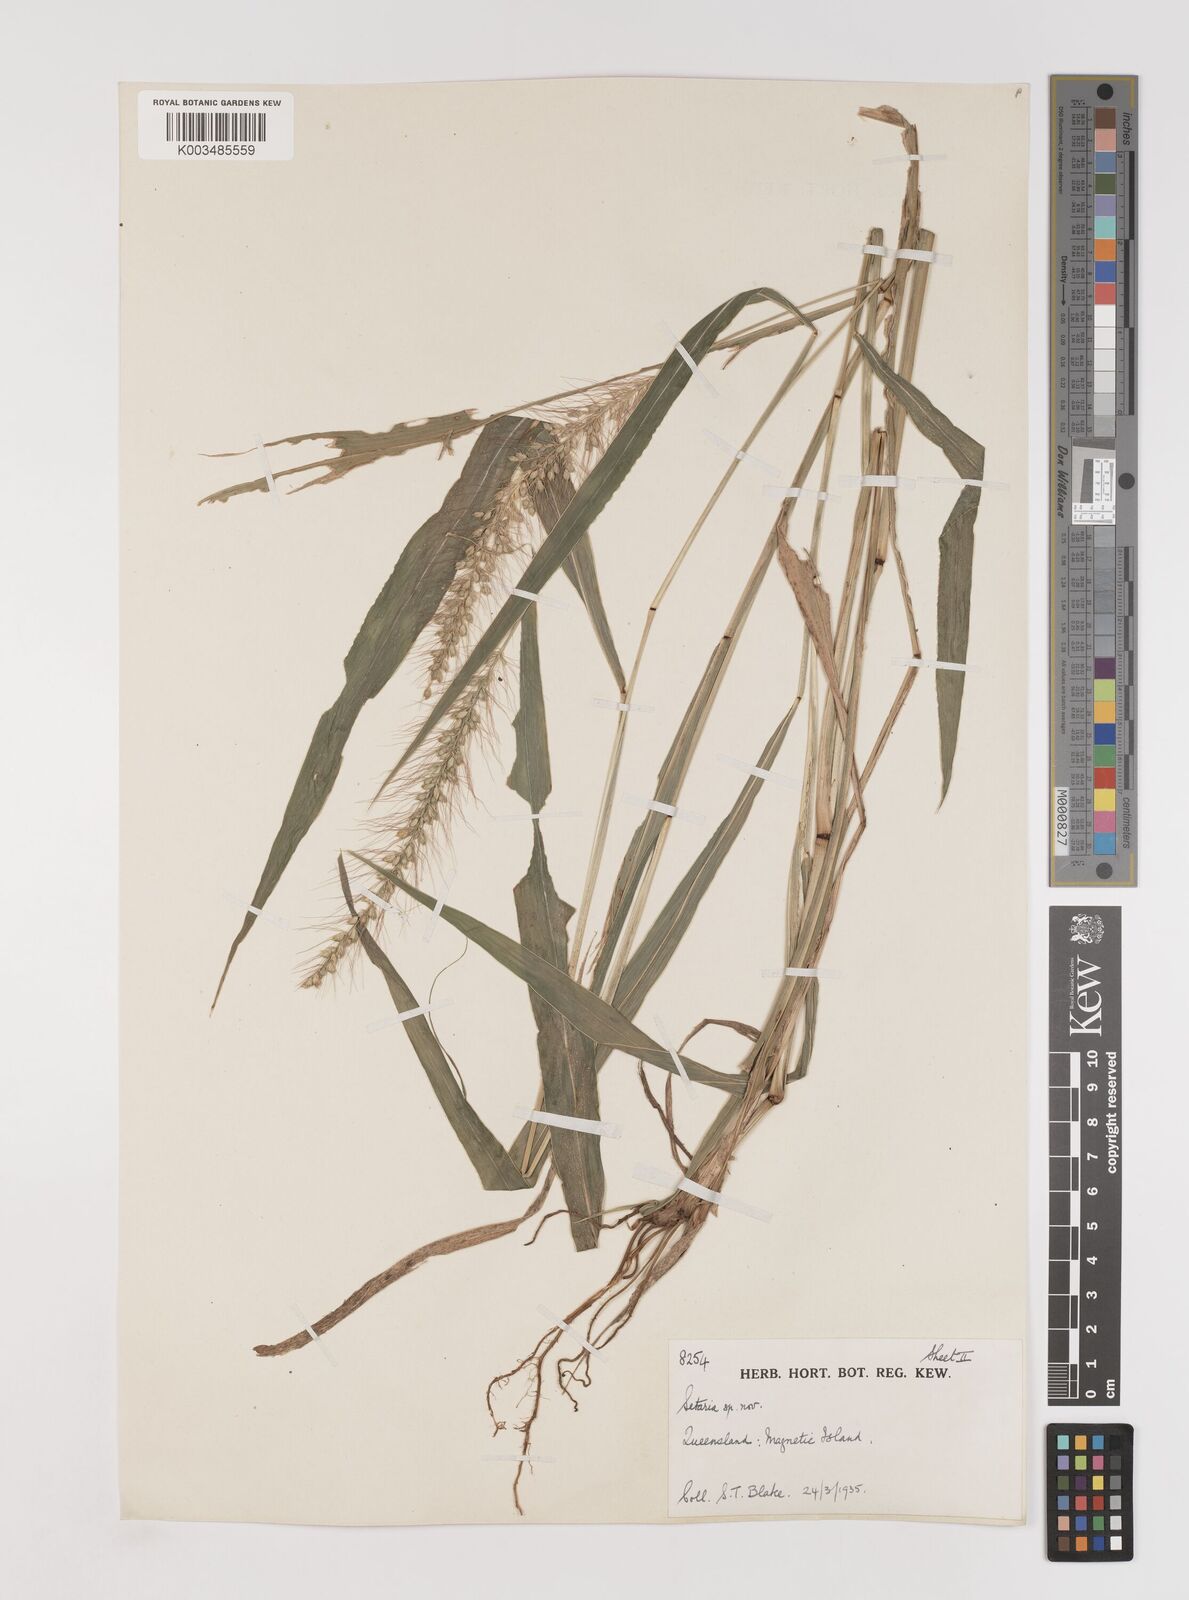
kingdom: Plantae
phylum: Tracheophyta
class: Liliopsida
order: Poales
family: Poaceae
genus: Setaria
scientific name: Setaria
